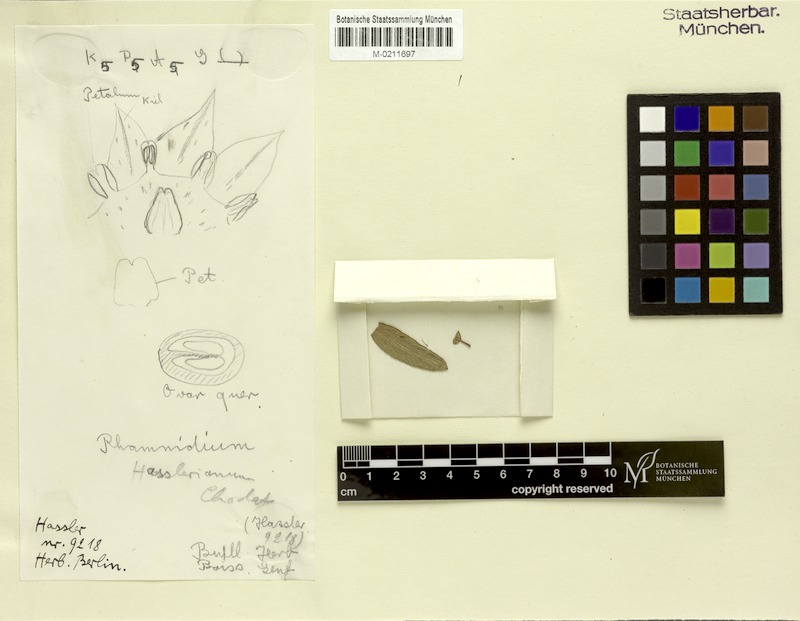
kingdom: Plantae
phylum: Tracheophyta
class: Magnoliopsida
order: Rosales
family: Rhamnaceae
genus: Rhamnidium
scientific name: Rhamnidium hasslerianum
